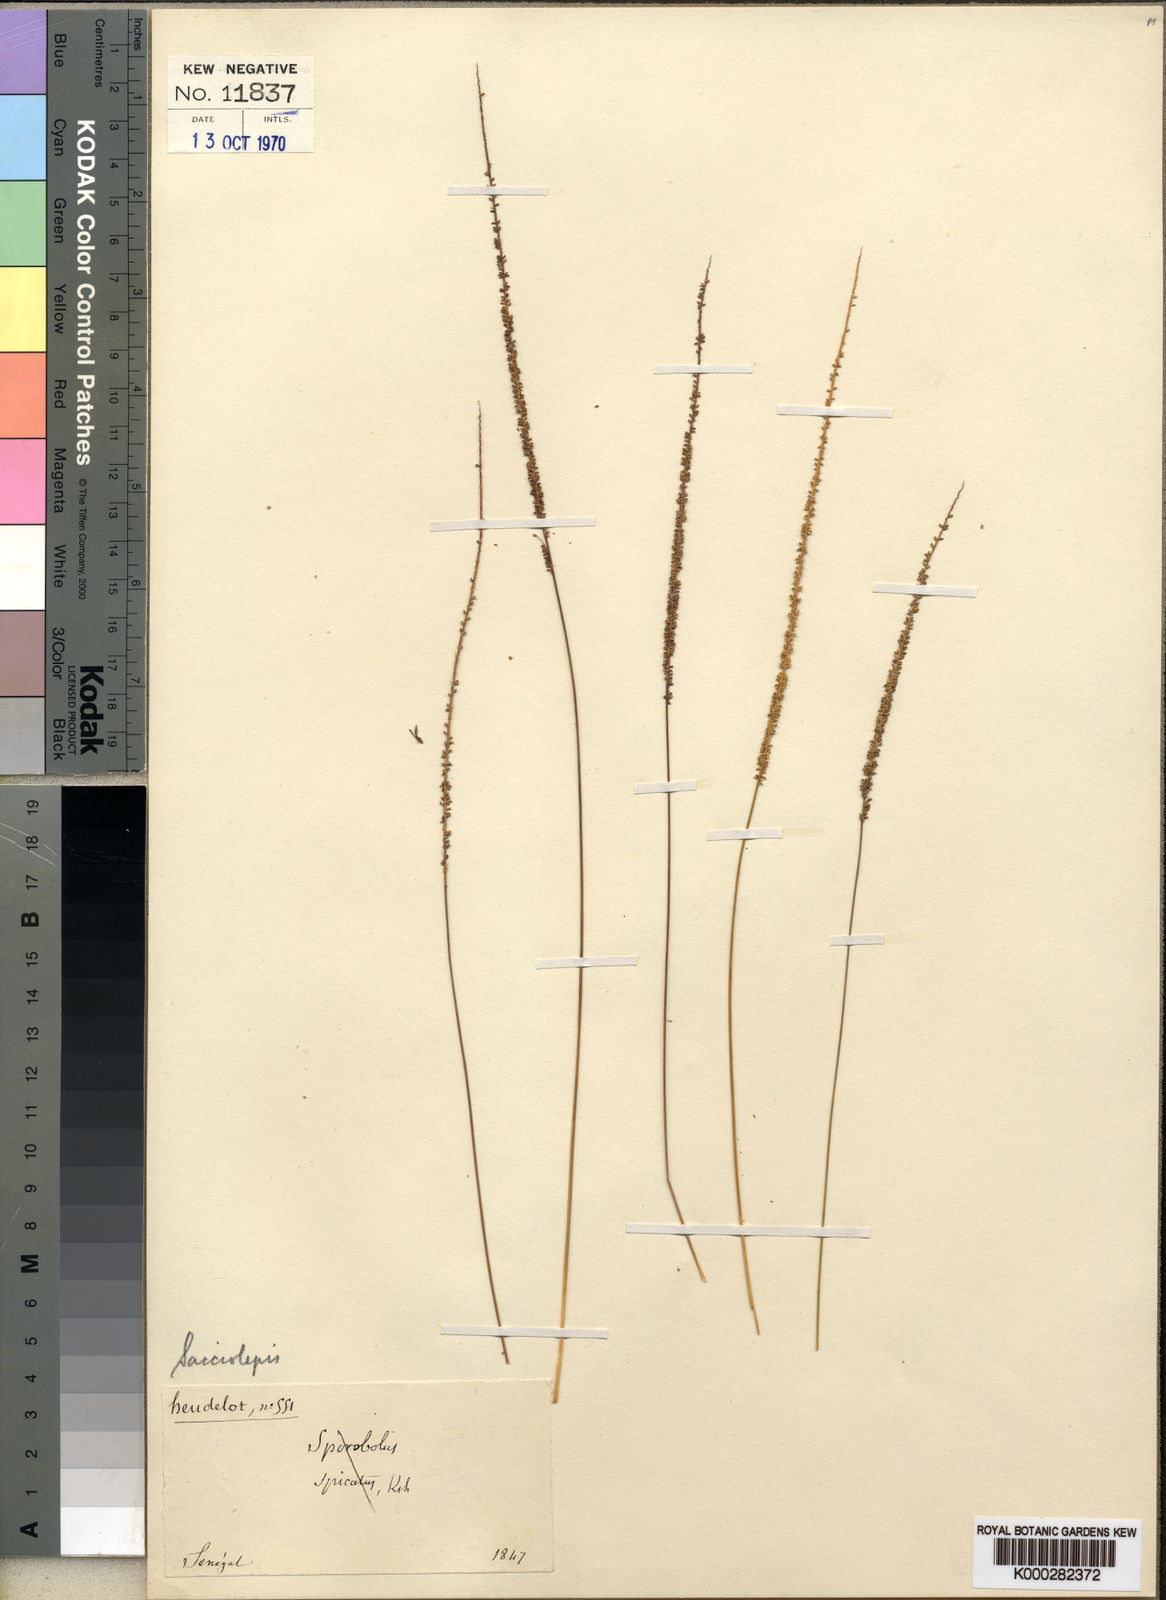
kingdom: Plantae
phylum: Tracheophyta
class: Liliopsida
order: Poales
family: Poaceae
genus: Sacciolepis
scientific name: Sacciolepis micrococca
